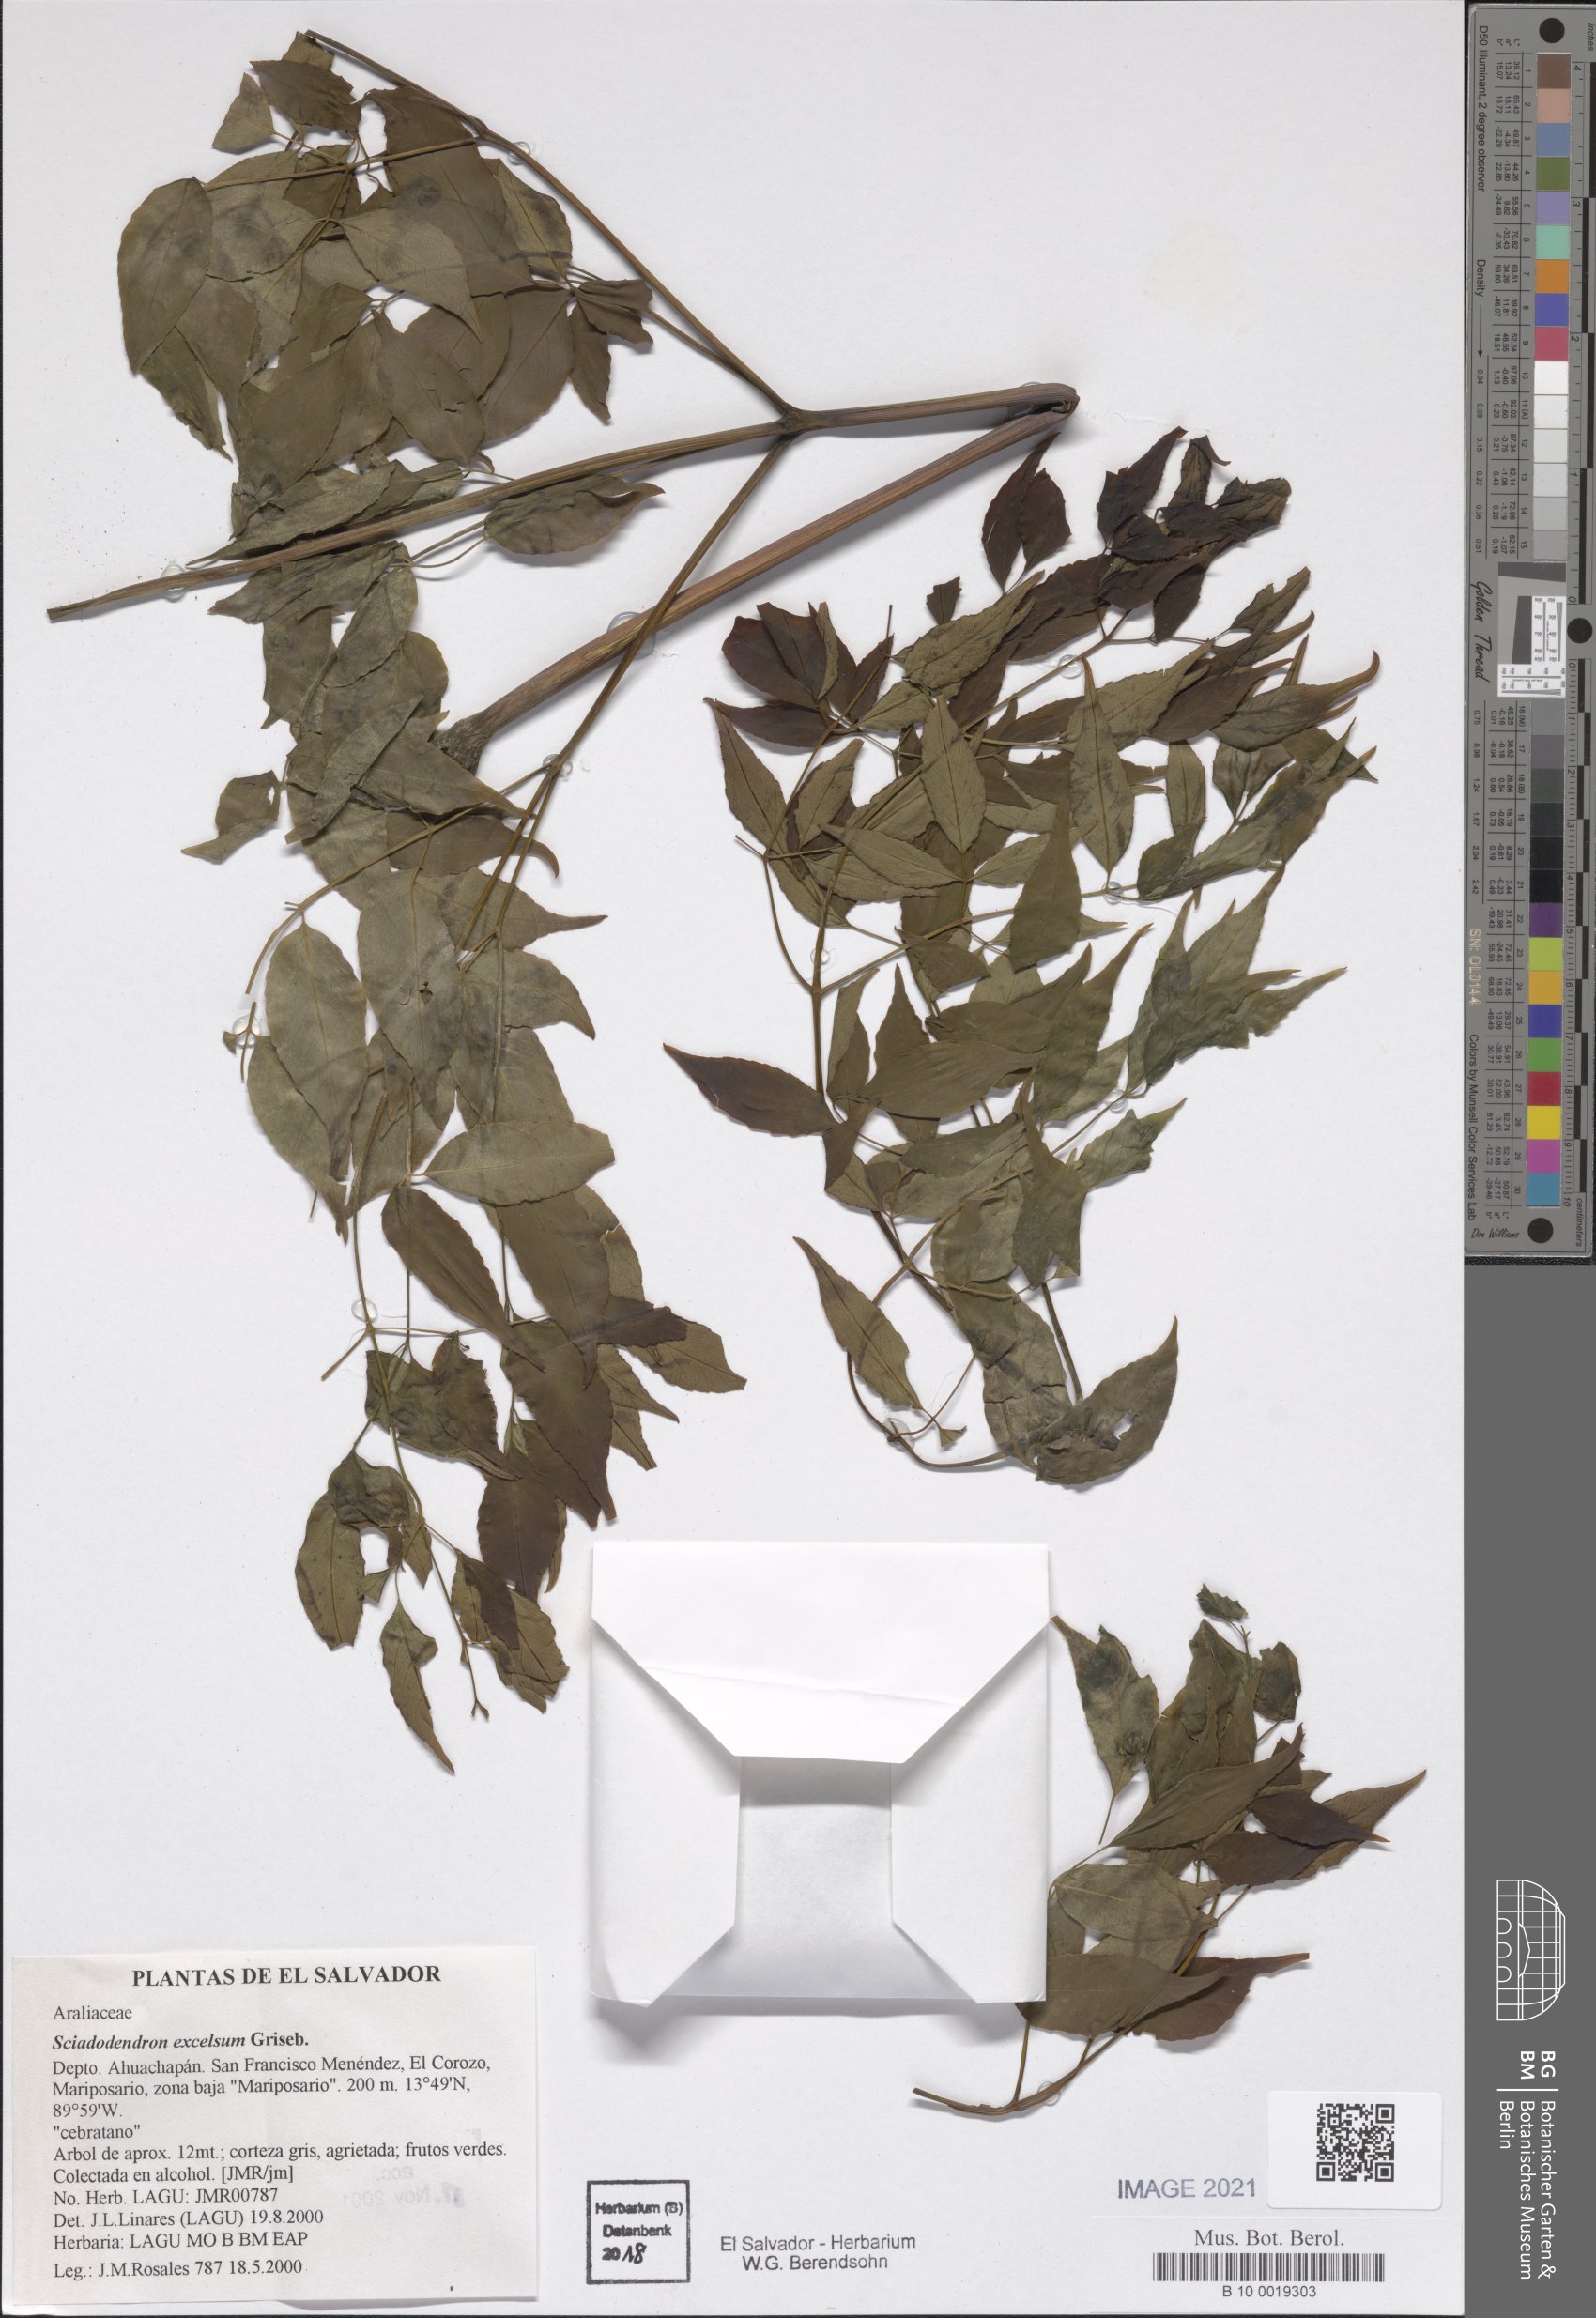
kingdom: Plantae
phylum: Tracheophyta
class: Magnoliopsida
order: Apiales
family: Araliaceae
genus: Aralia
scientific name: Aralia excelsa
